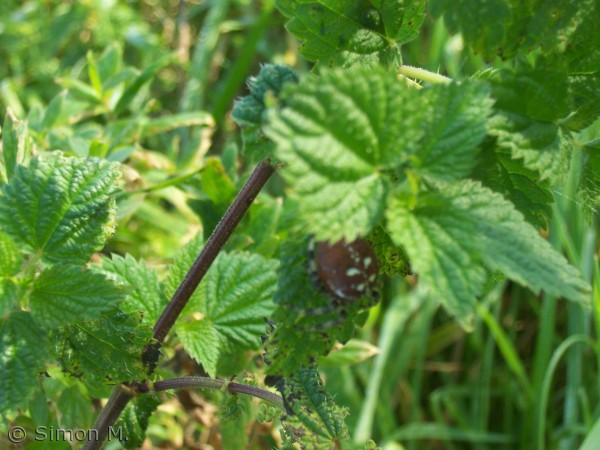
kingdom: Animalia
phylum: Arthropoda
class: Arachnida
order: Araneae
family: Araneidae
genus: Araneus
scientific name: Araneus quadratus
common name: Kvadratedderkop
